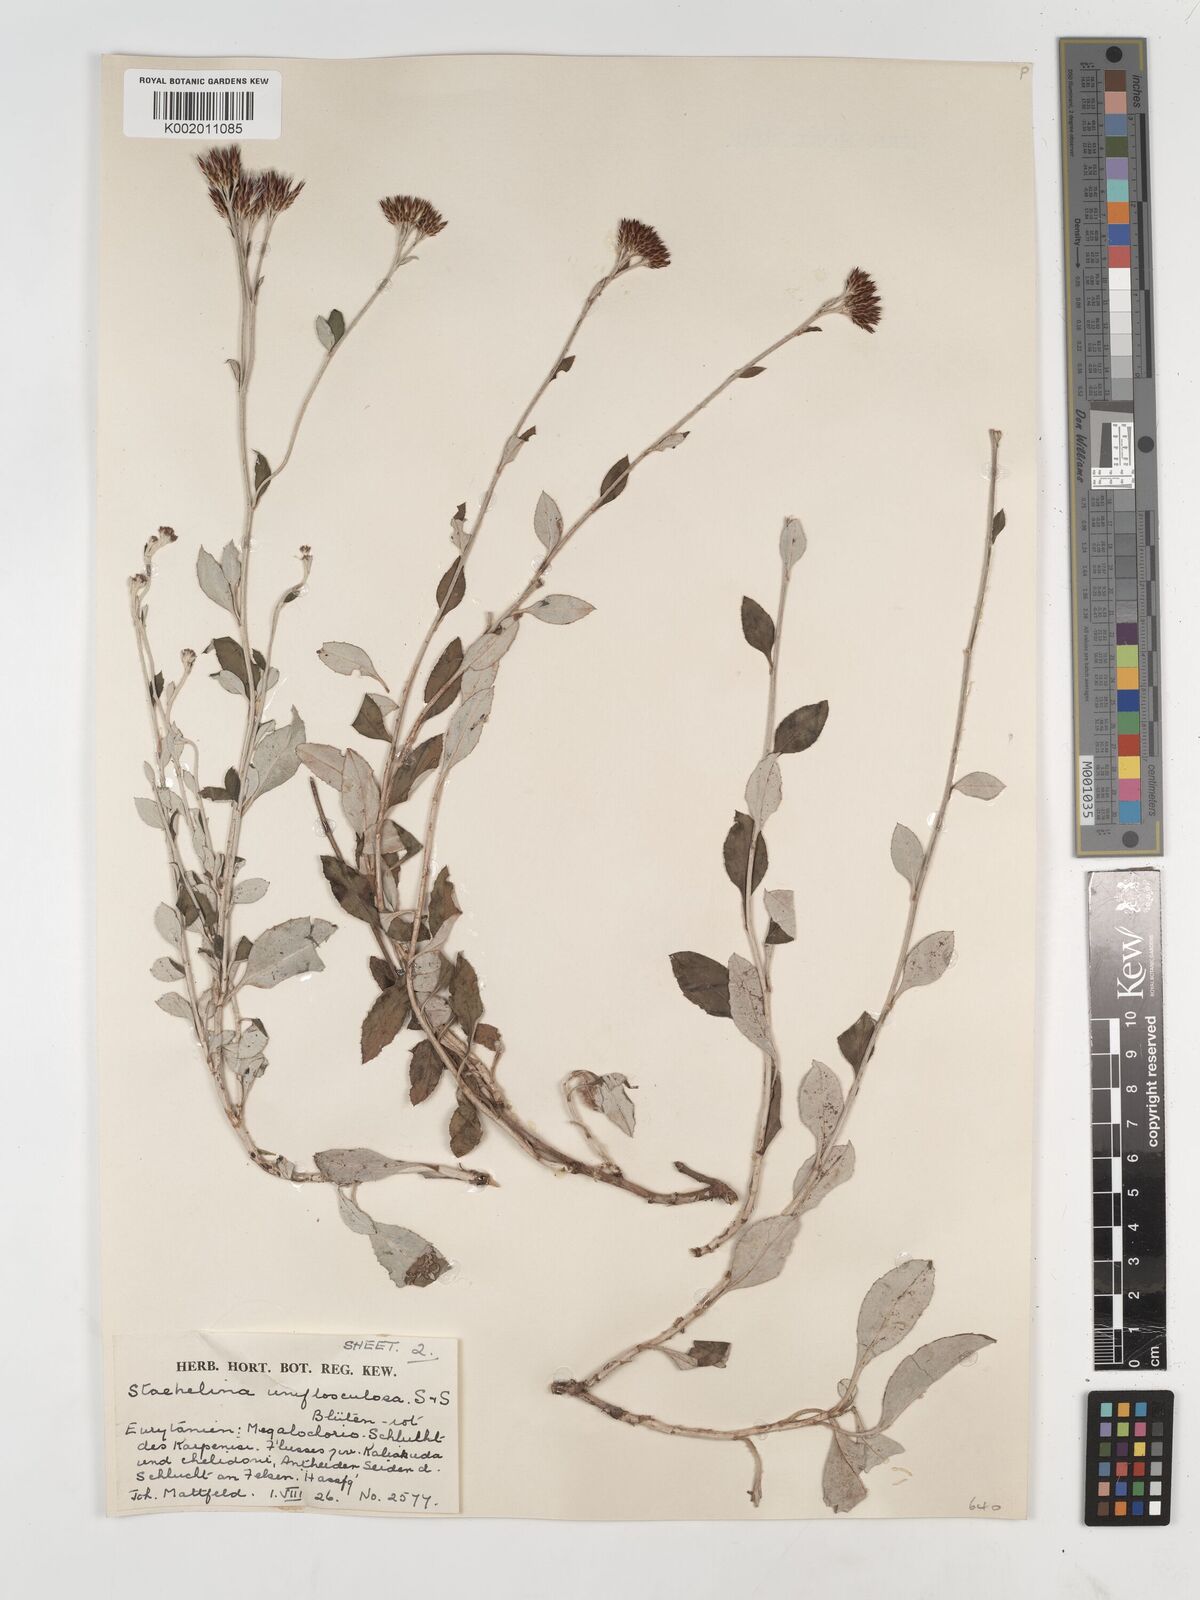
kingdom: Plantae
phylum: Tracheophyta
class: Magnoliopsida
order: Asterales
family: Asteraceae
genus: Staehelina
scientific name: Staehelina uniflosculosa
